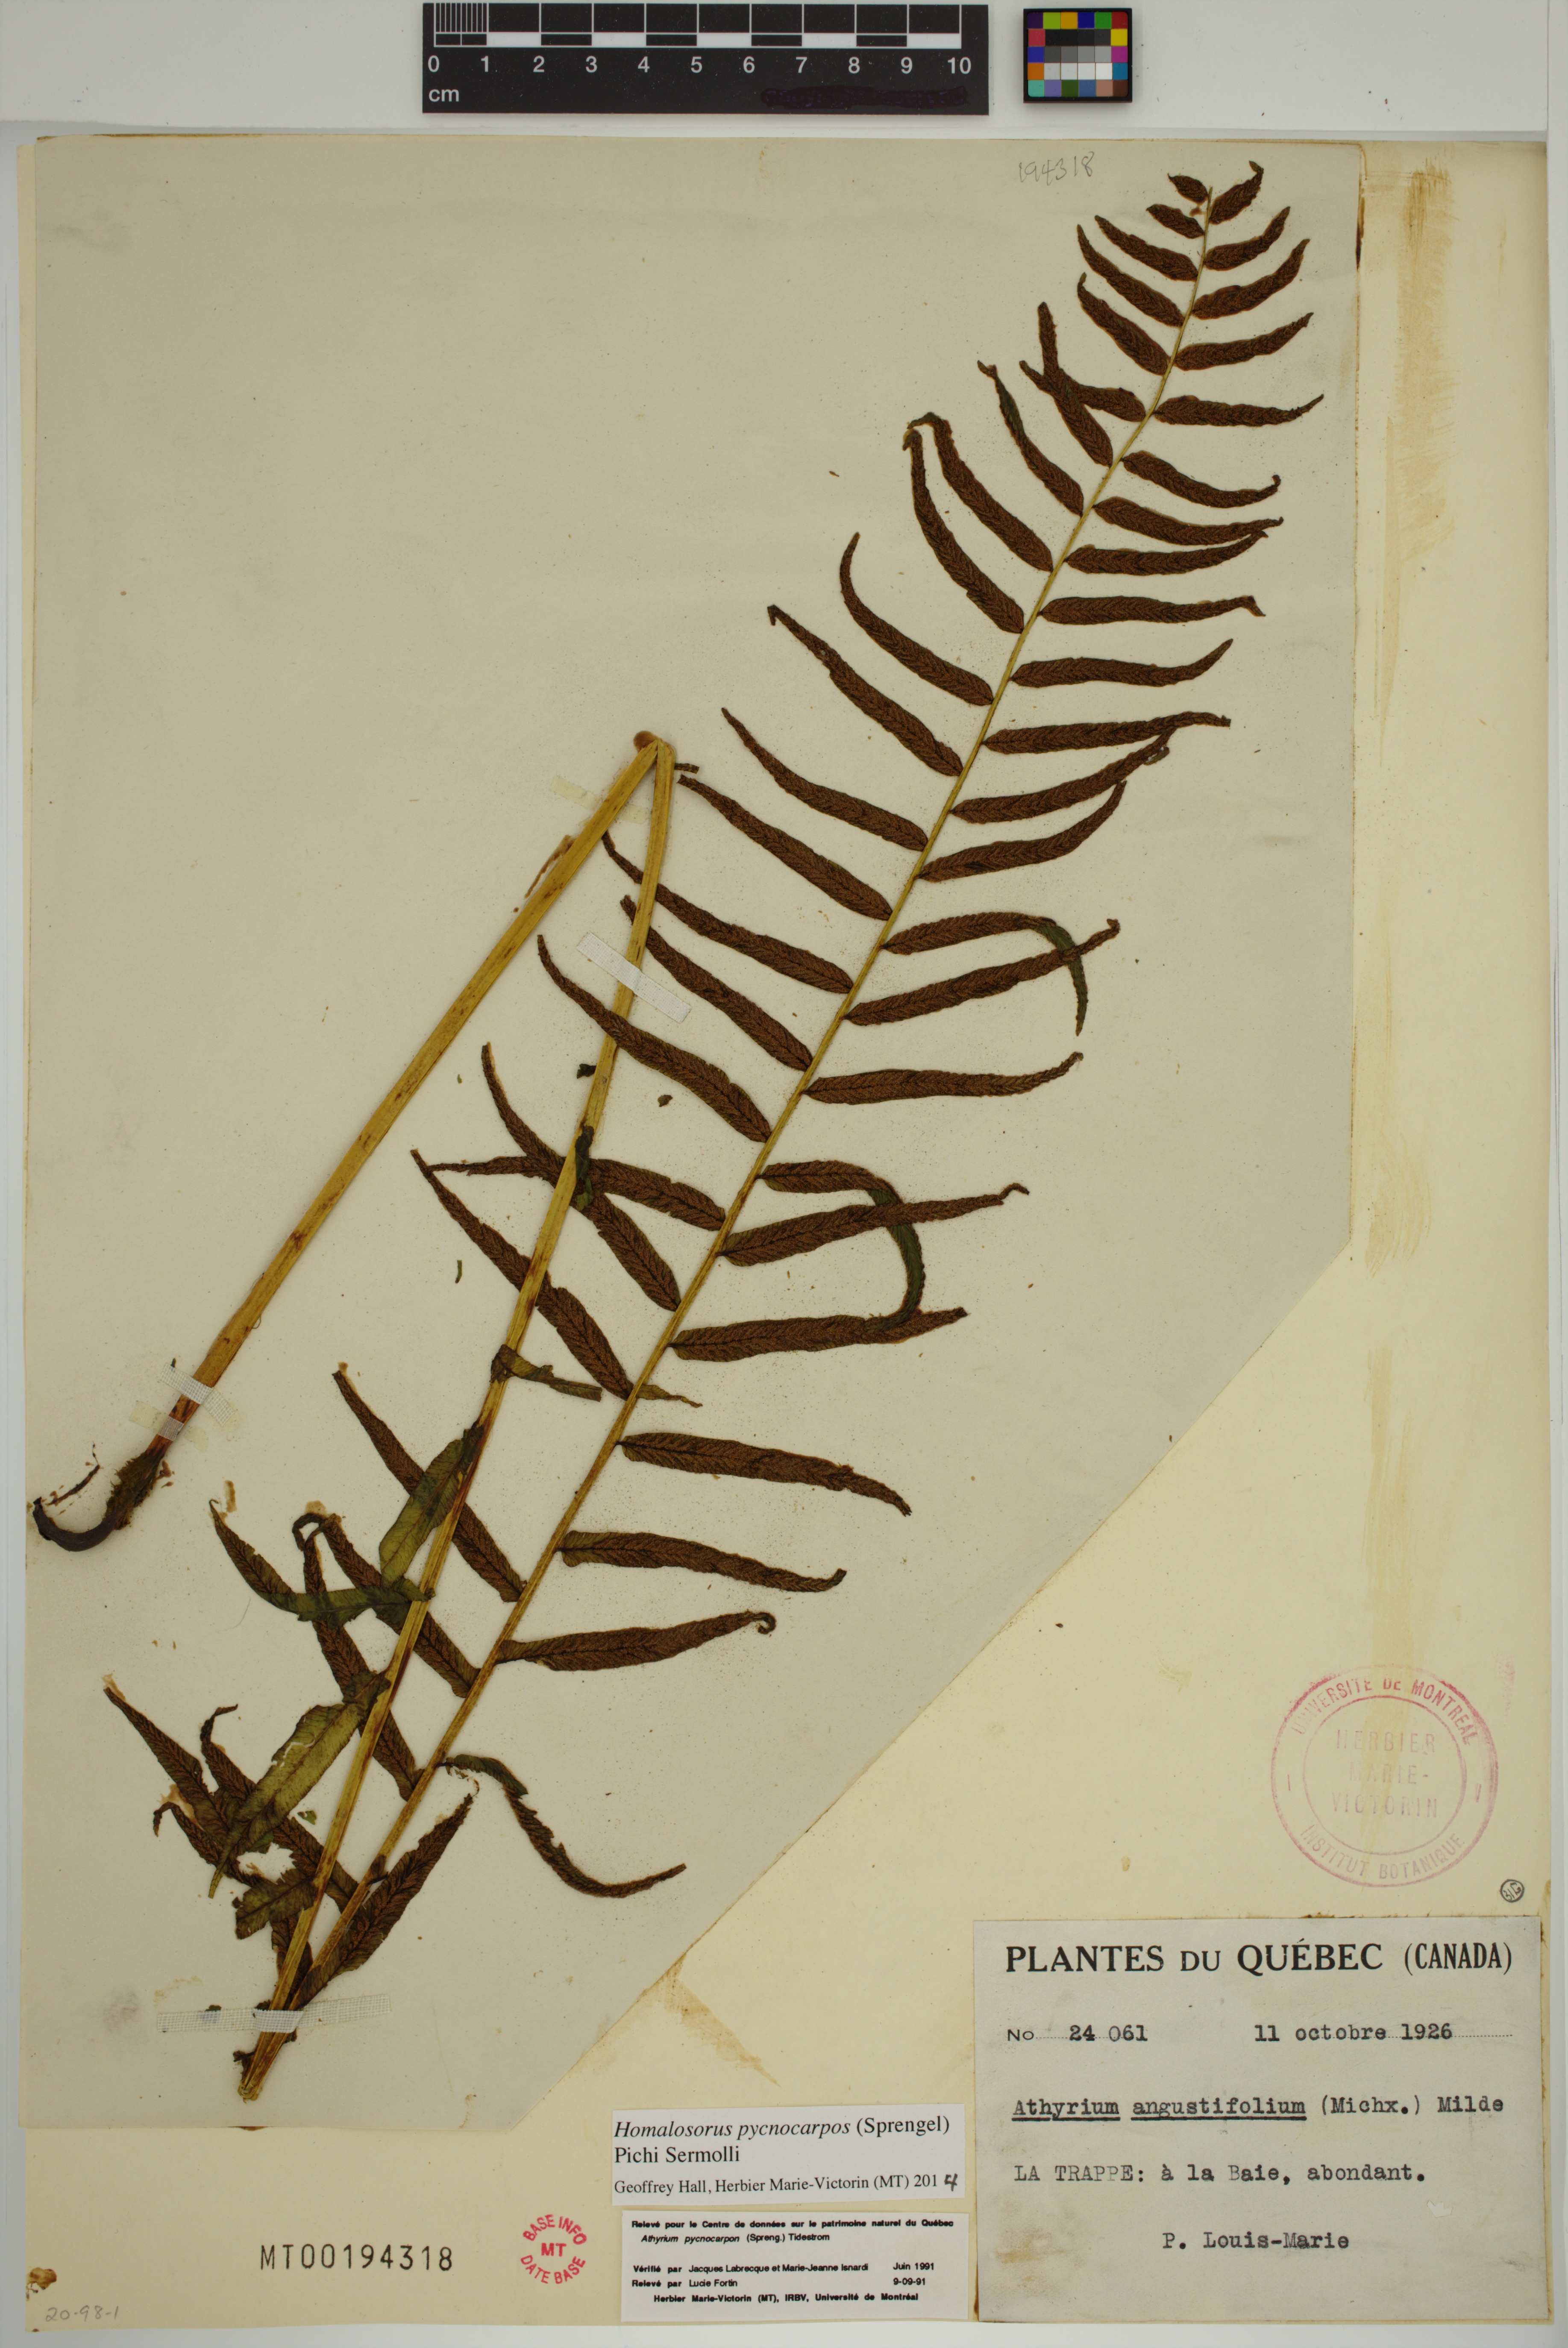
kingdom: Plantae
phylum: Tracheophyta
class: Polypodiopsida
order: Polypodiales
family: Diplaziopsidaceae
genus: Homalosorus
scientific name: Homalosorus pycnocarpos
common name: Glade fern
